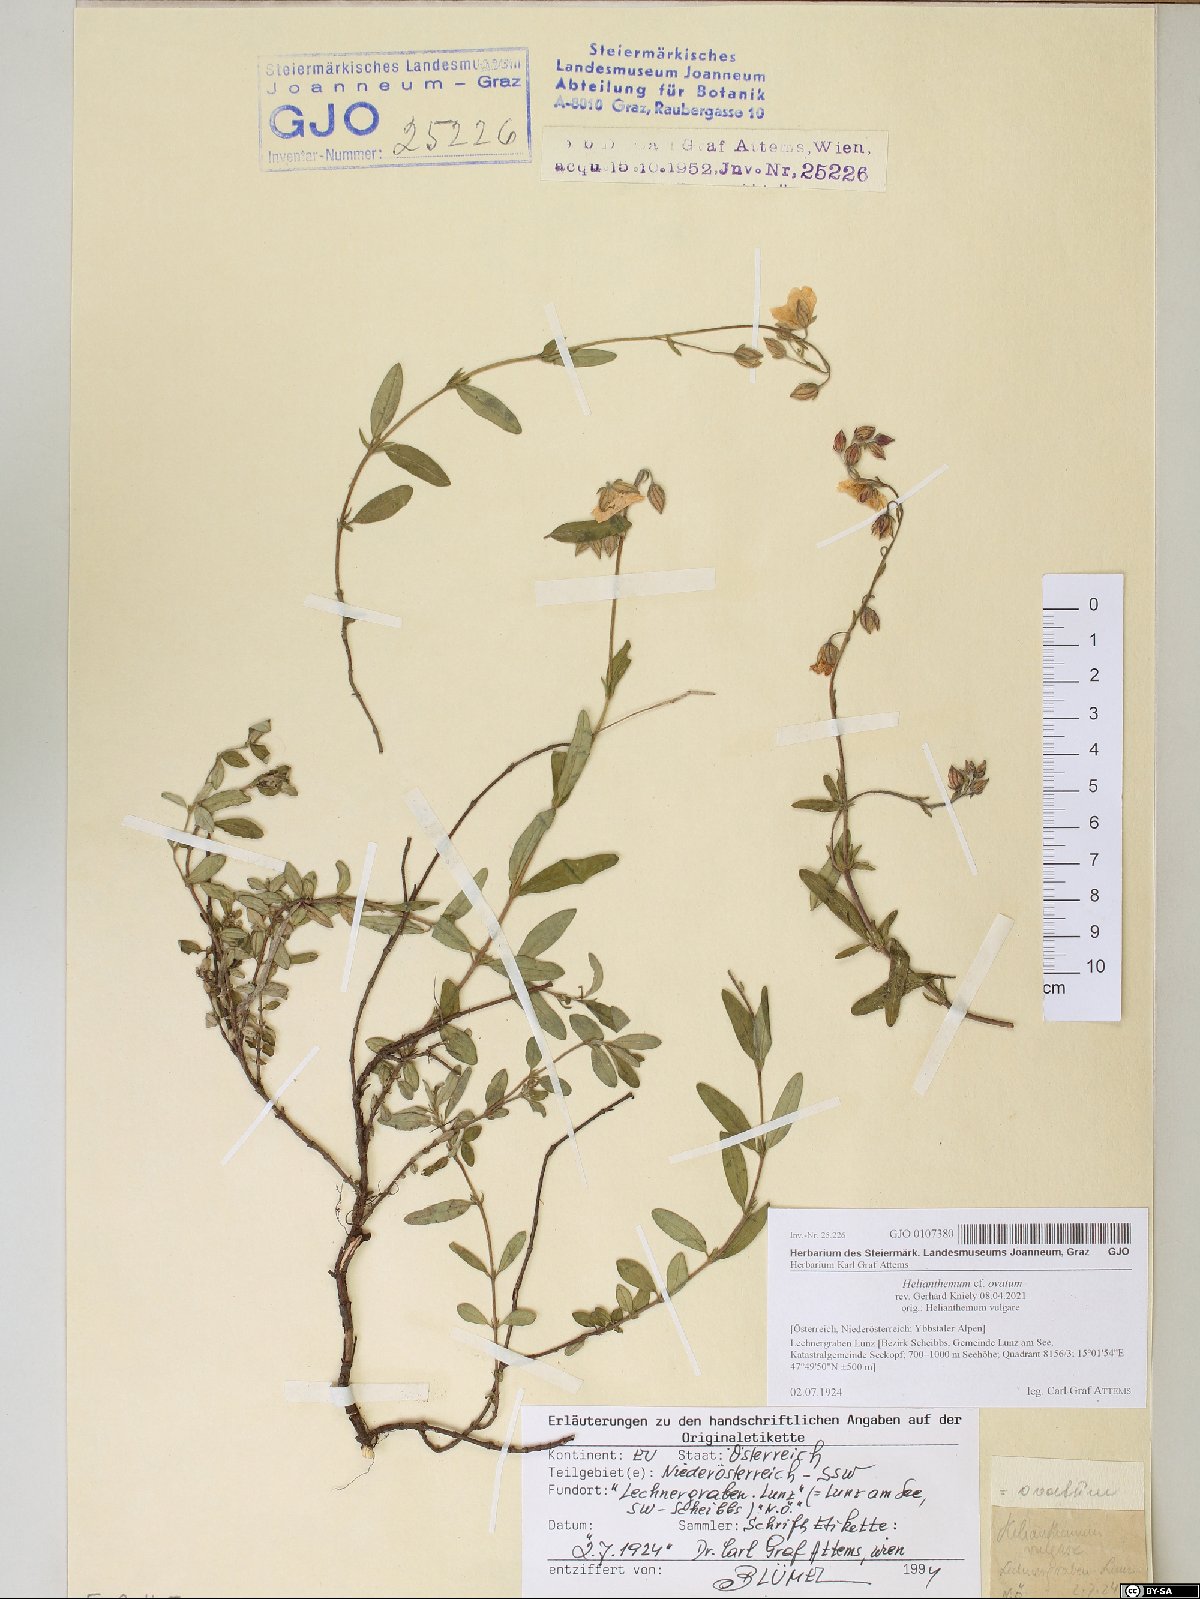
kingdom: Plantae
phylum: Tracheophyta
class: Magnoliopsida
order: Malvales
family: Cistaceae
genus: Helianthemum
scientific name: Helianthemum nummularium
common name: Common rock-rose
